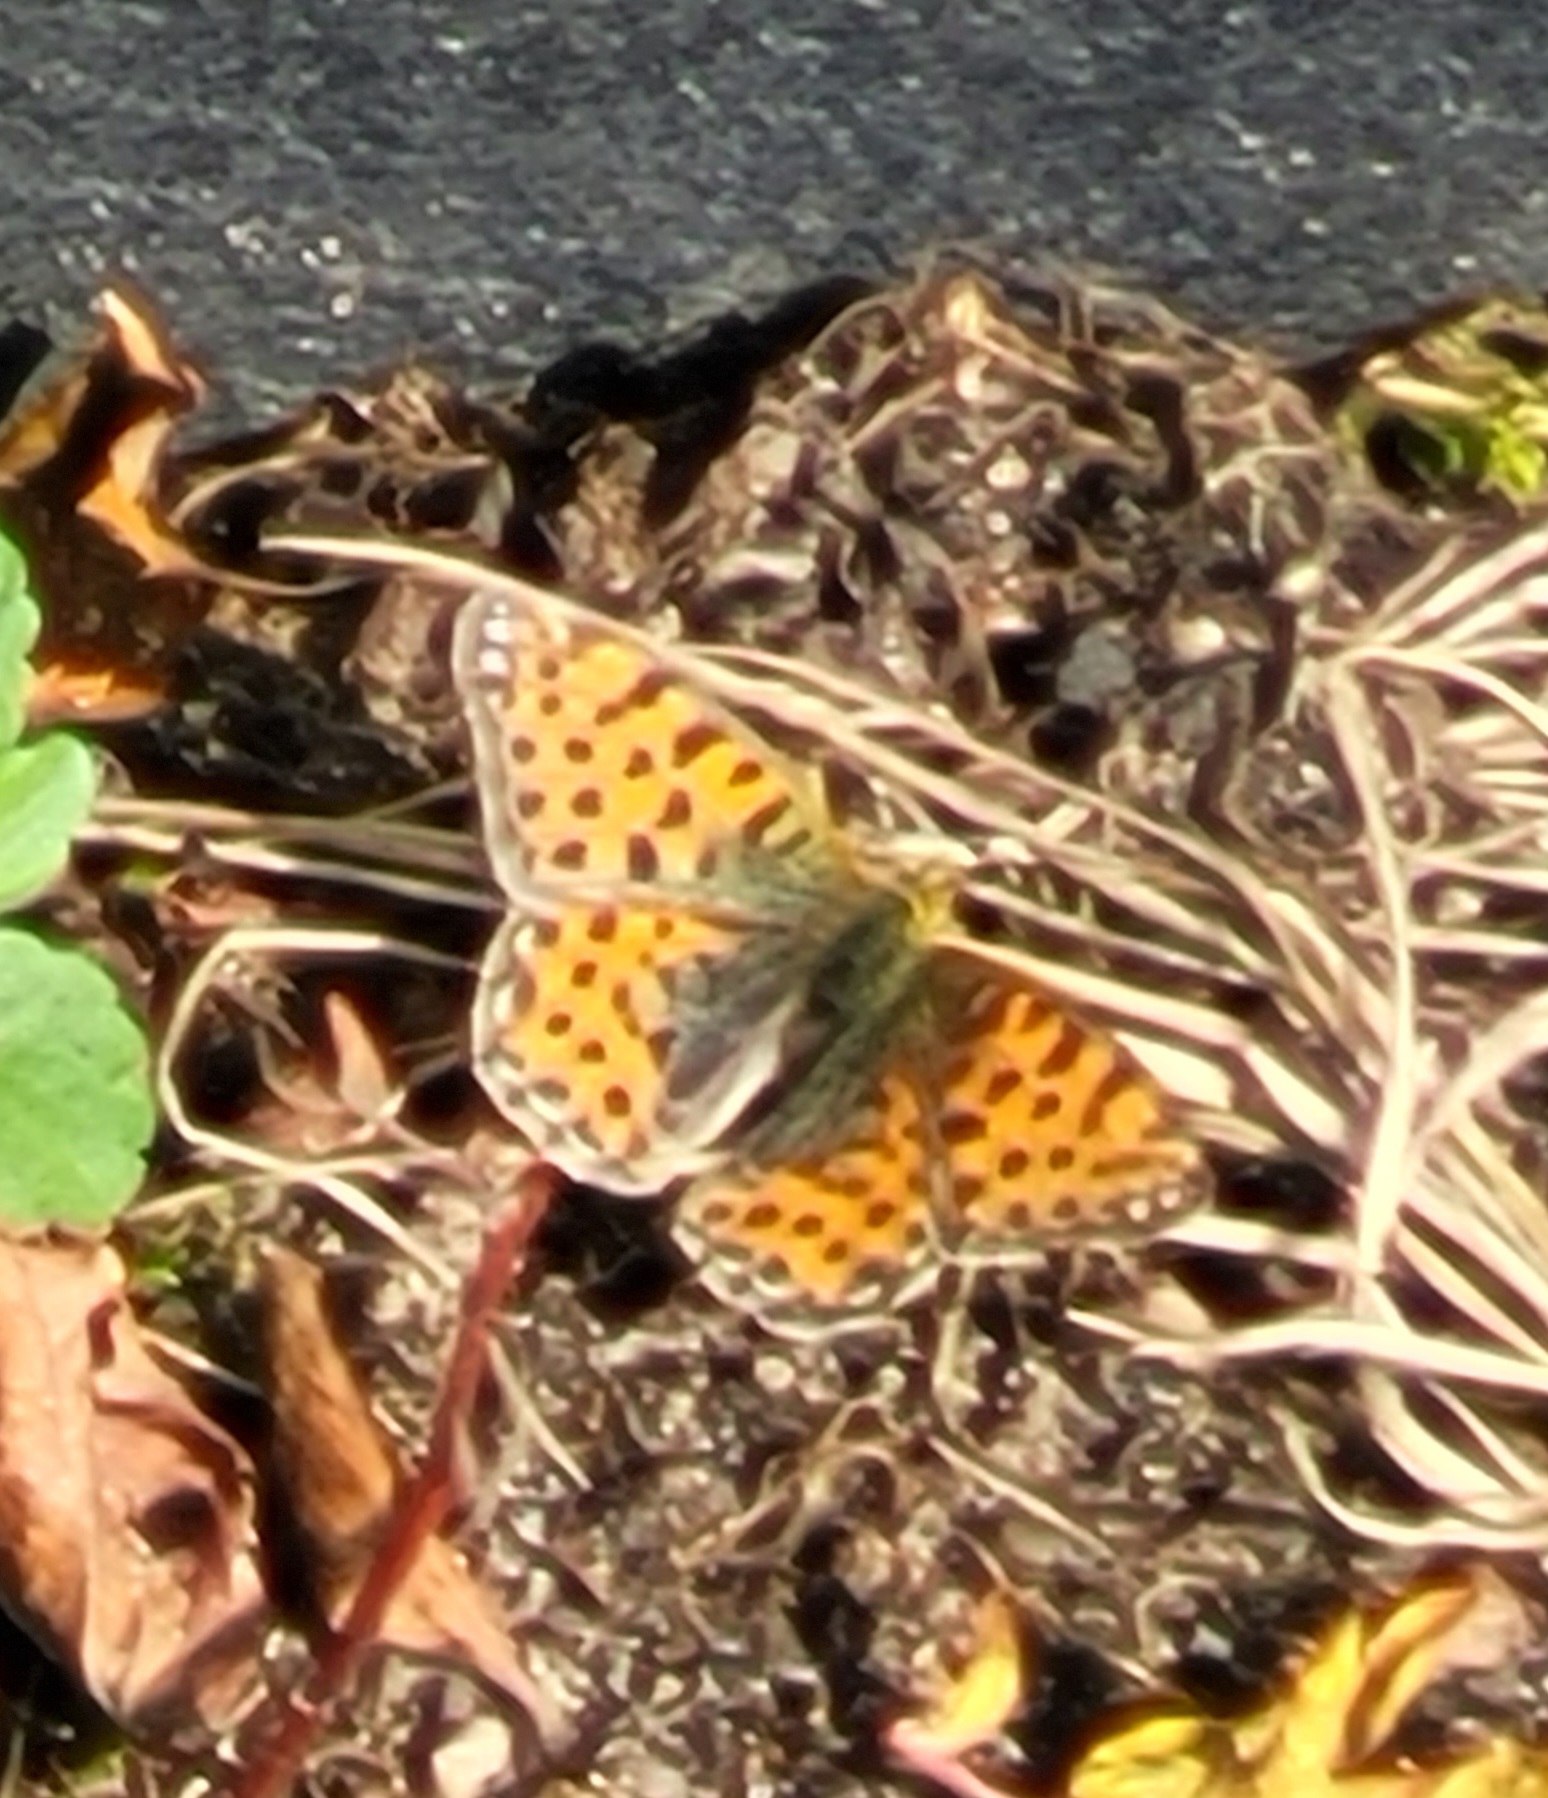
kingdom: Animalia
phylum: Arthropoda
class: Insecta
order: Lepidoptera
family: Nymphalidae
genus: Issoria
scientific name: Issoria lathonia
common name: Storplettet perlemorsommerfugl
